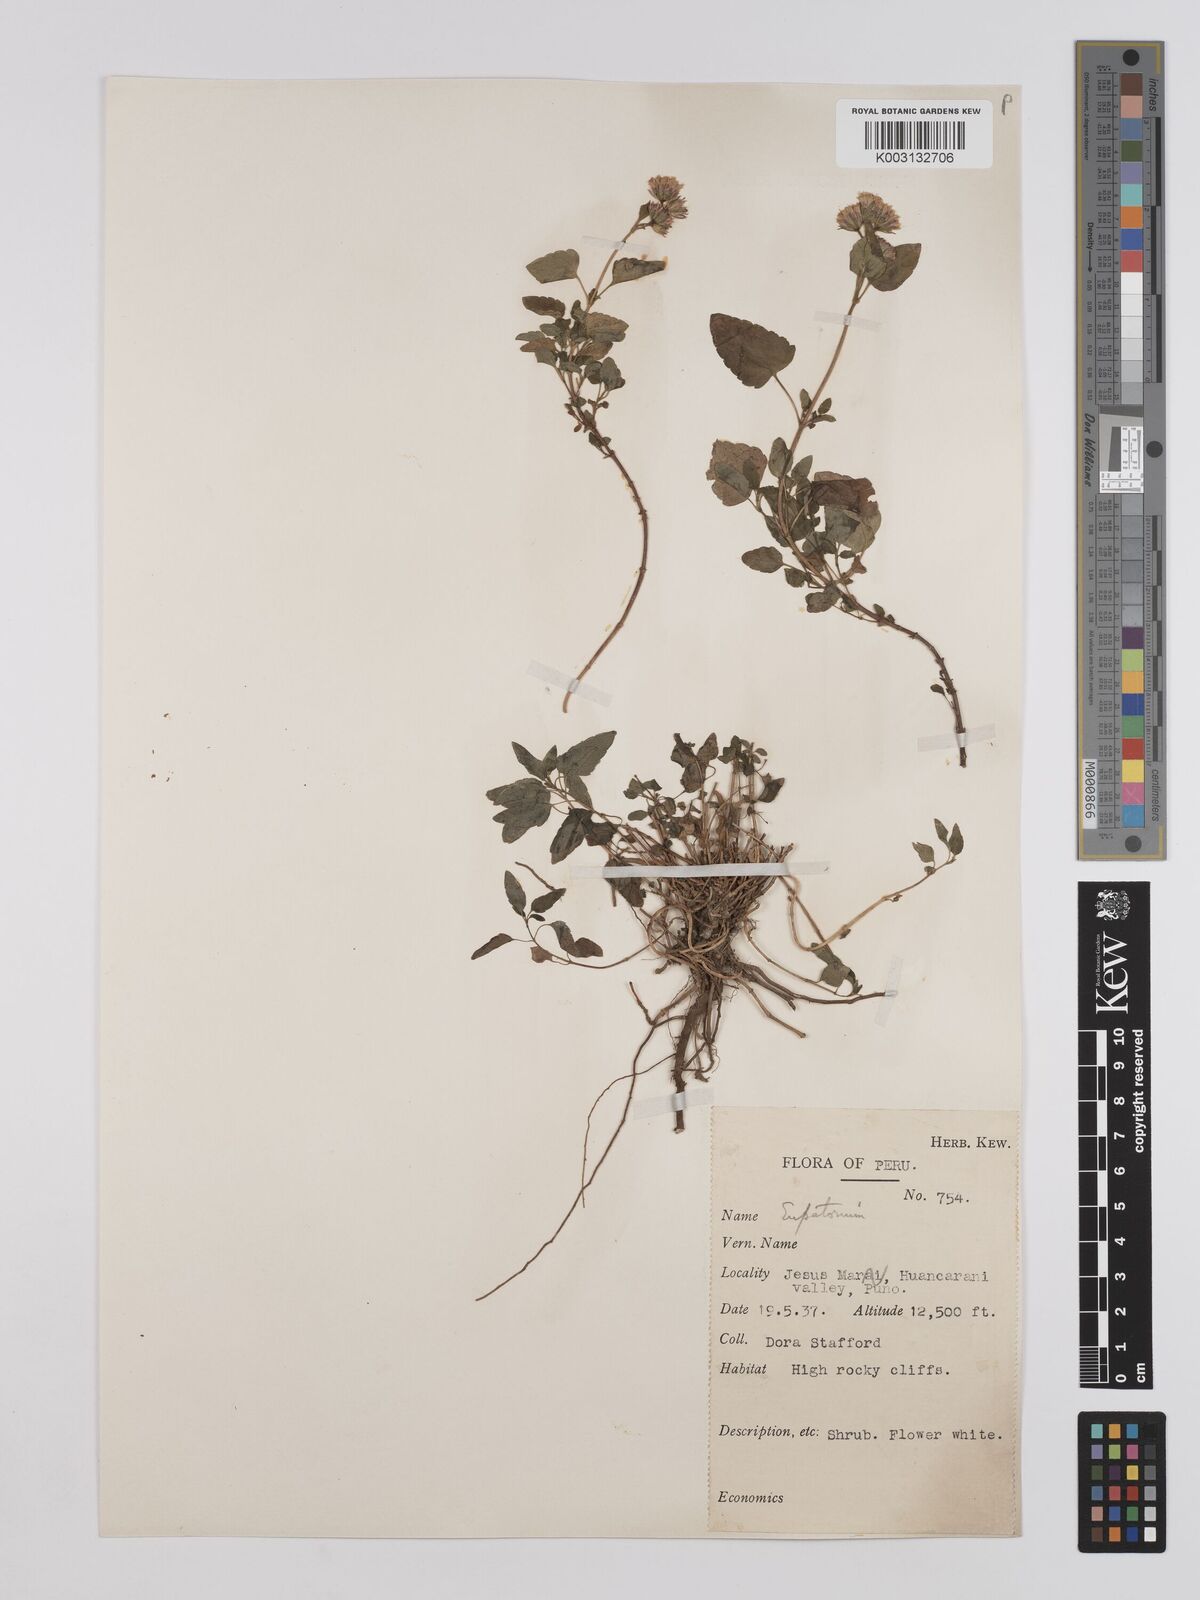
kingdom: Plantae
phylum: Tracheophyta
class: Magnoliopsida
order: Asterales
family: Asteraceae
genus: Ageratina
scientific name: Ageratina glechonophylla
